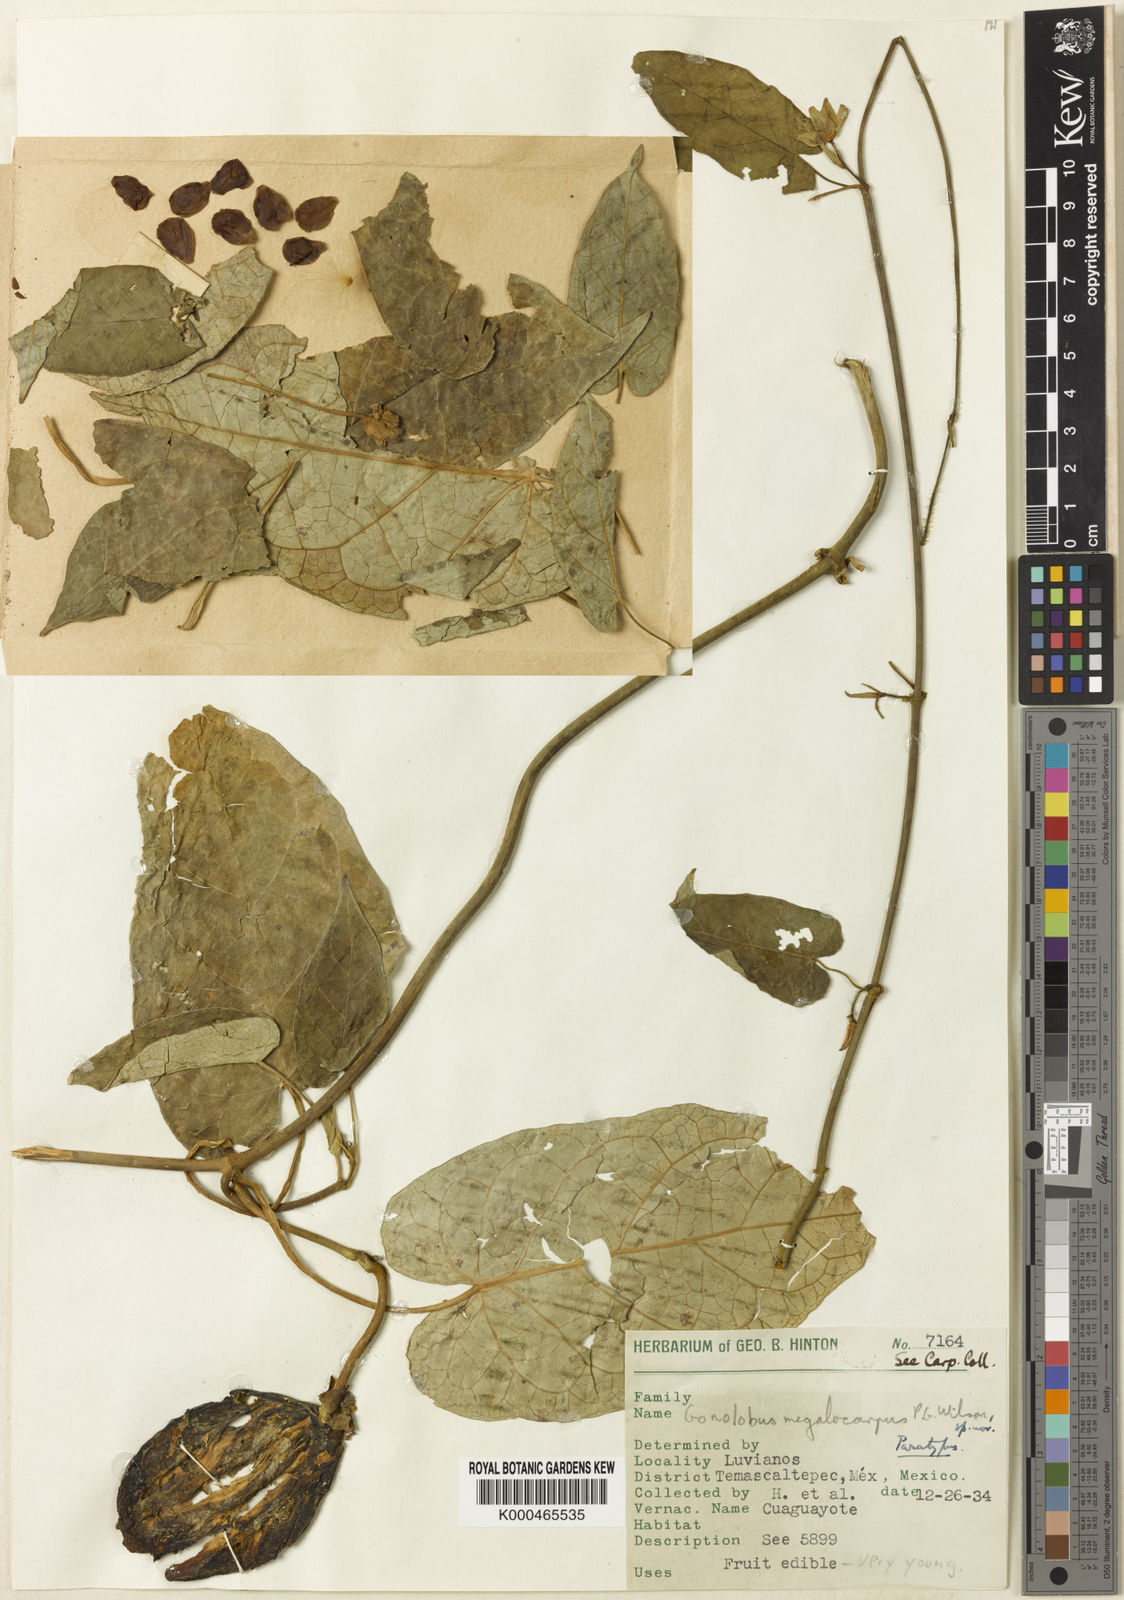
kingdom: Plantae
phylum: Tracheophyta
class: Magnoliopsida
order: Gentianales
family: Apocynaceae
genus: Gonolobus
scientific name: Gonolobus pancololote
